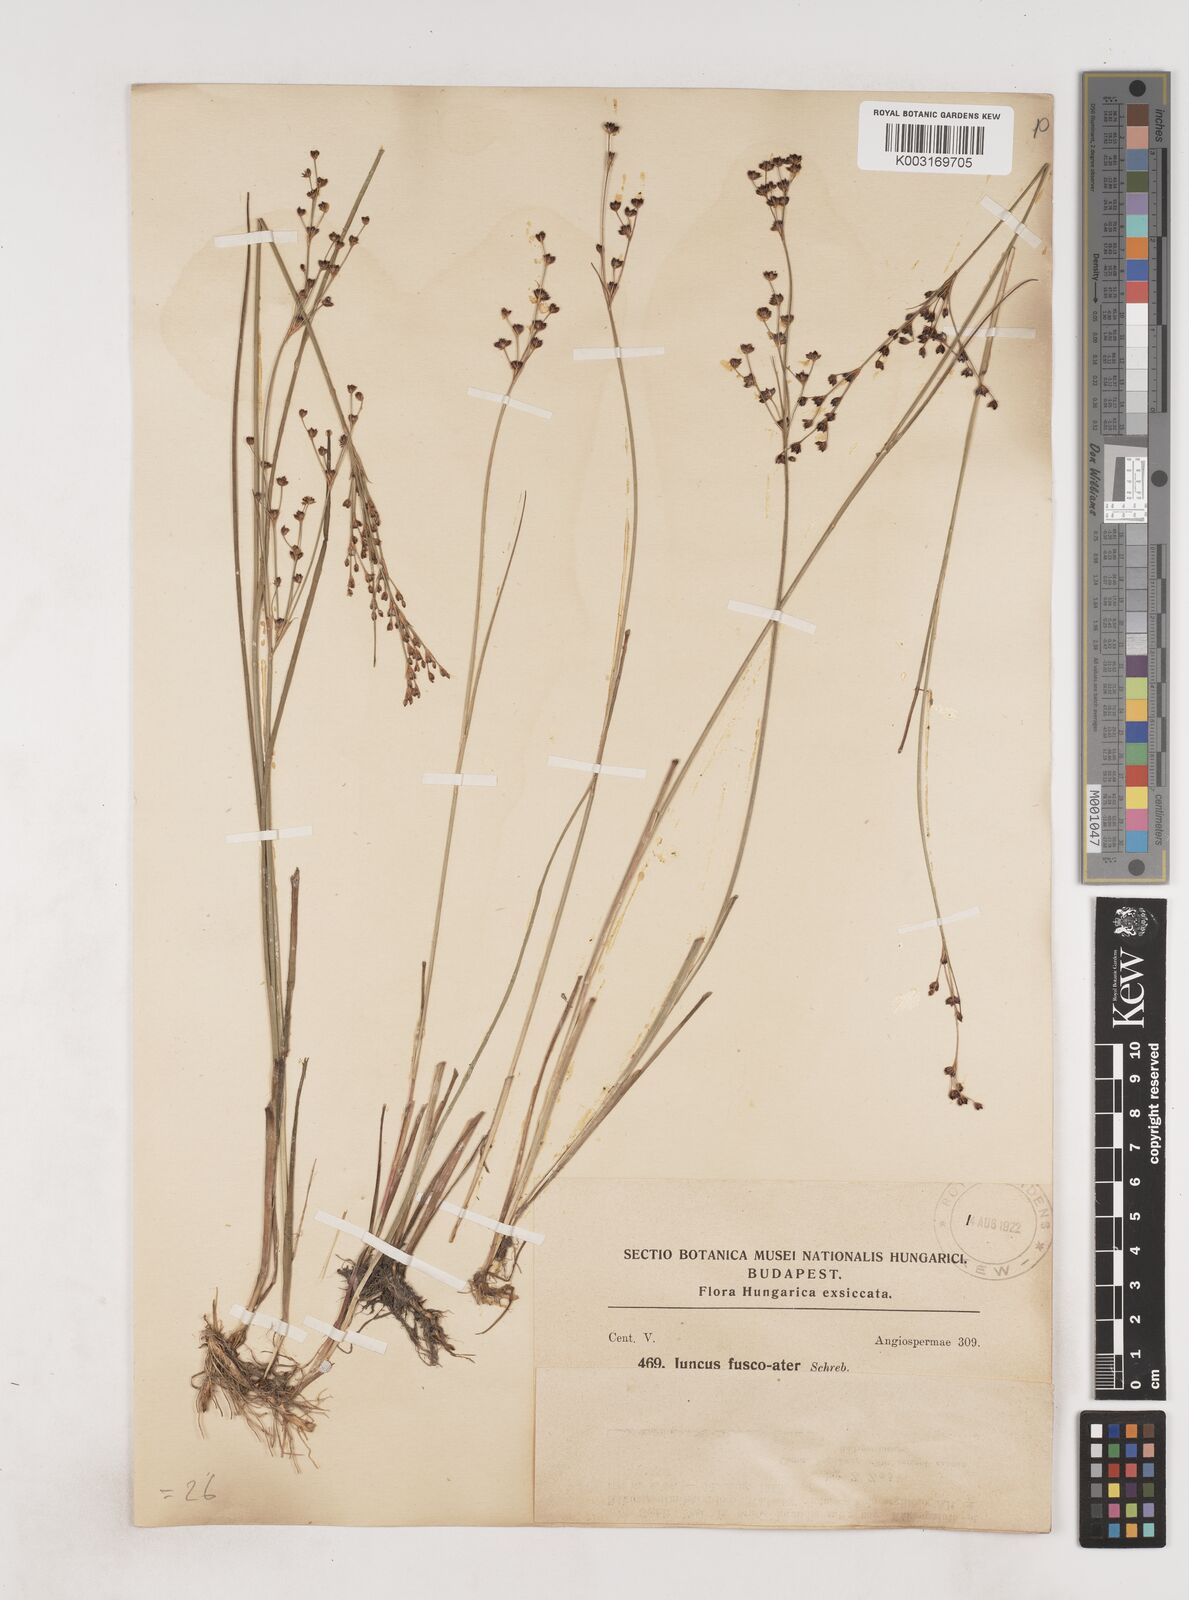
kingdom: Plantae
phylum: Tracheophyta
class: Liliopsida
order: Poales
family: Juncaceae
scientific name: Juncaceae
